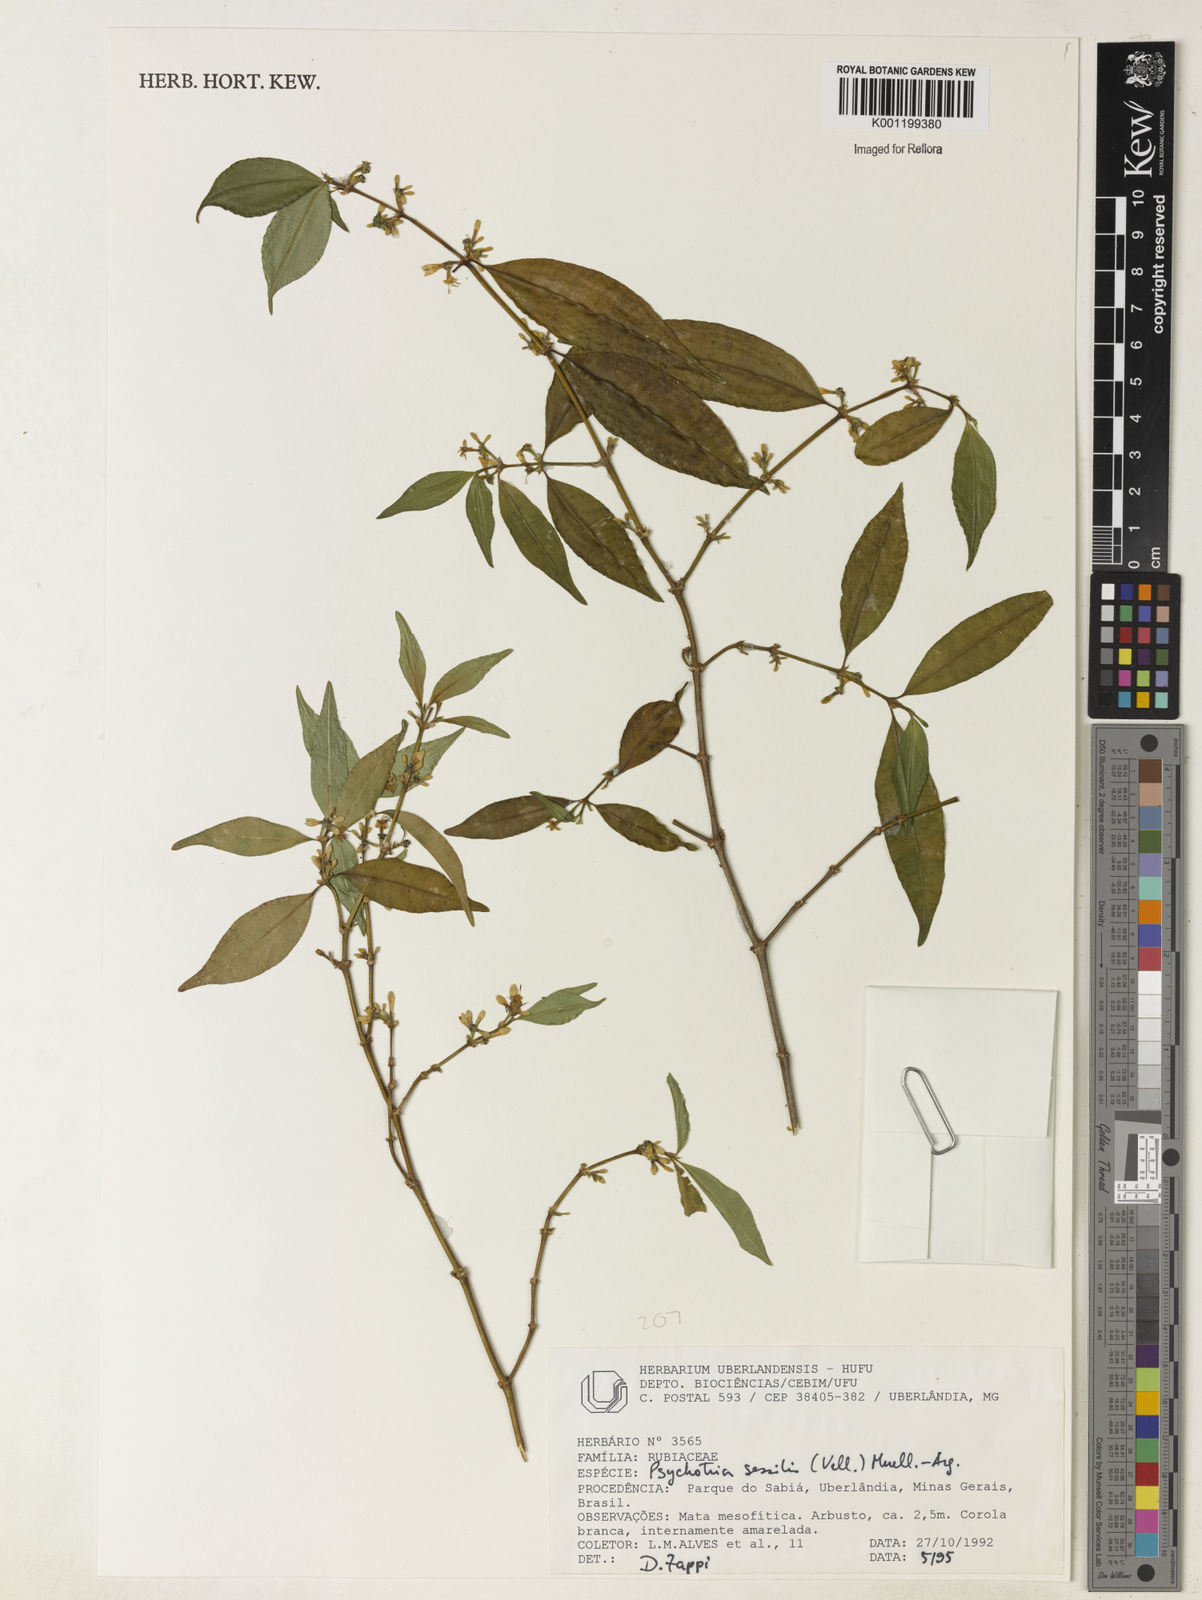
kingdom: Plantae
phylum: Tracheophyta
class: Magnoliopsida
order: Gentianales
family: Rubiaceae
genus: Palicourea
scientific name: Palicourea sessilis
